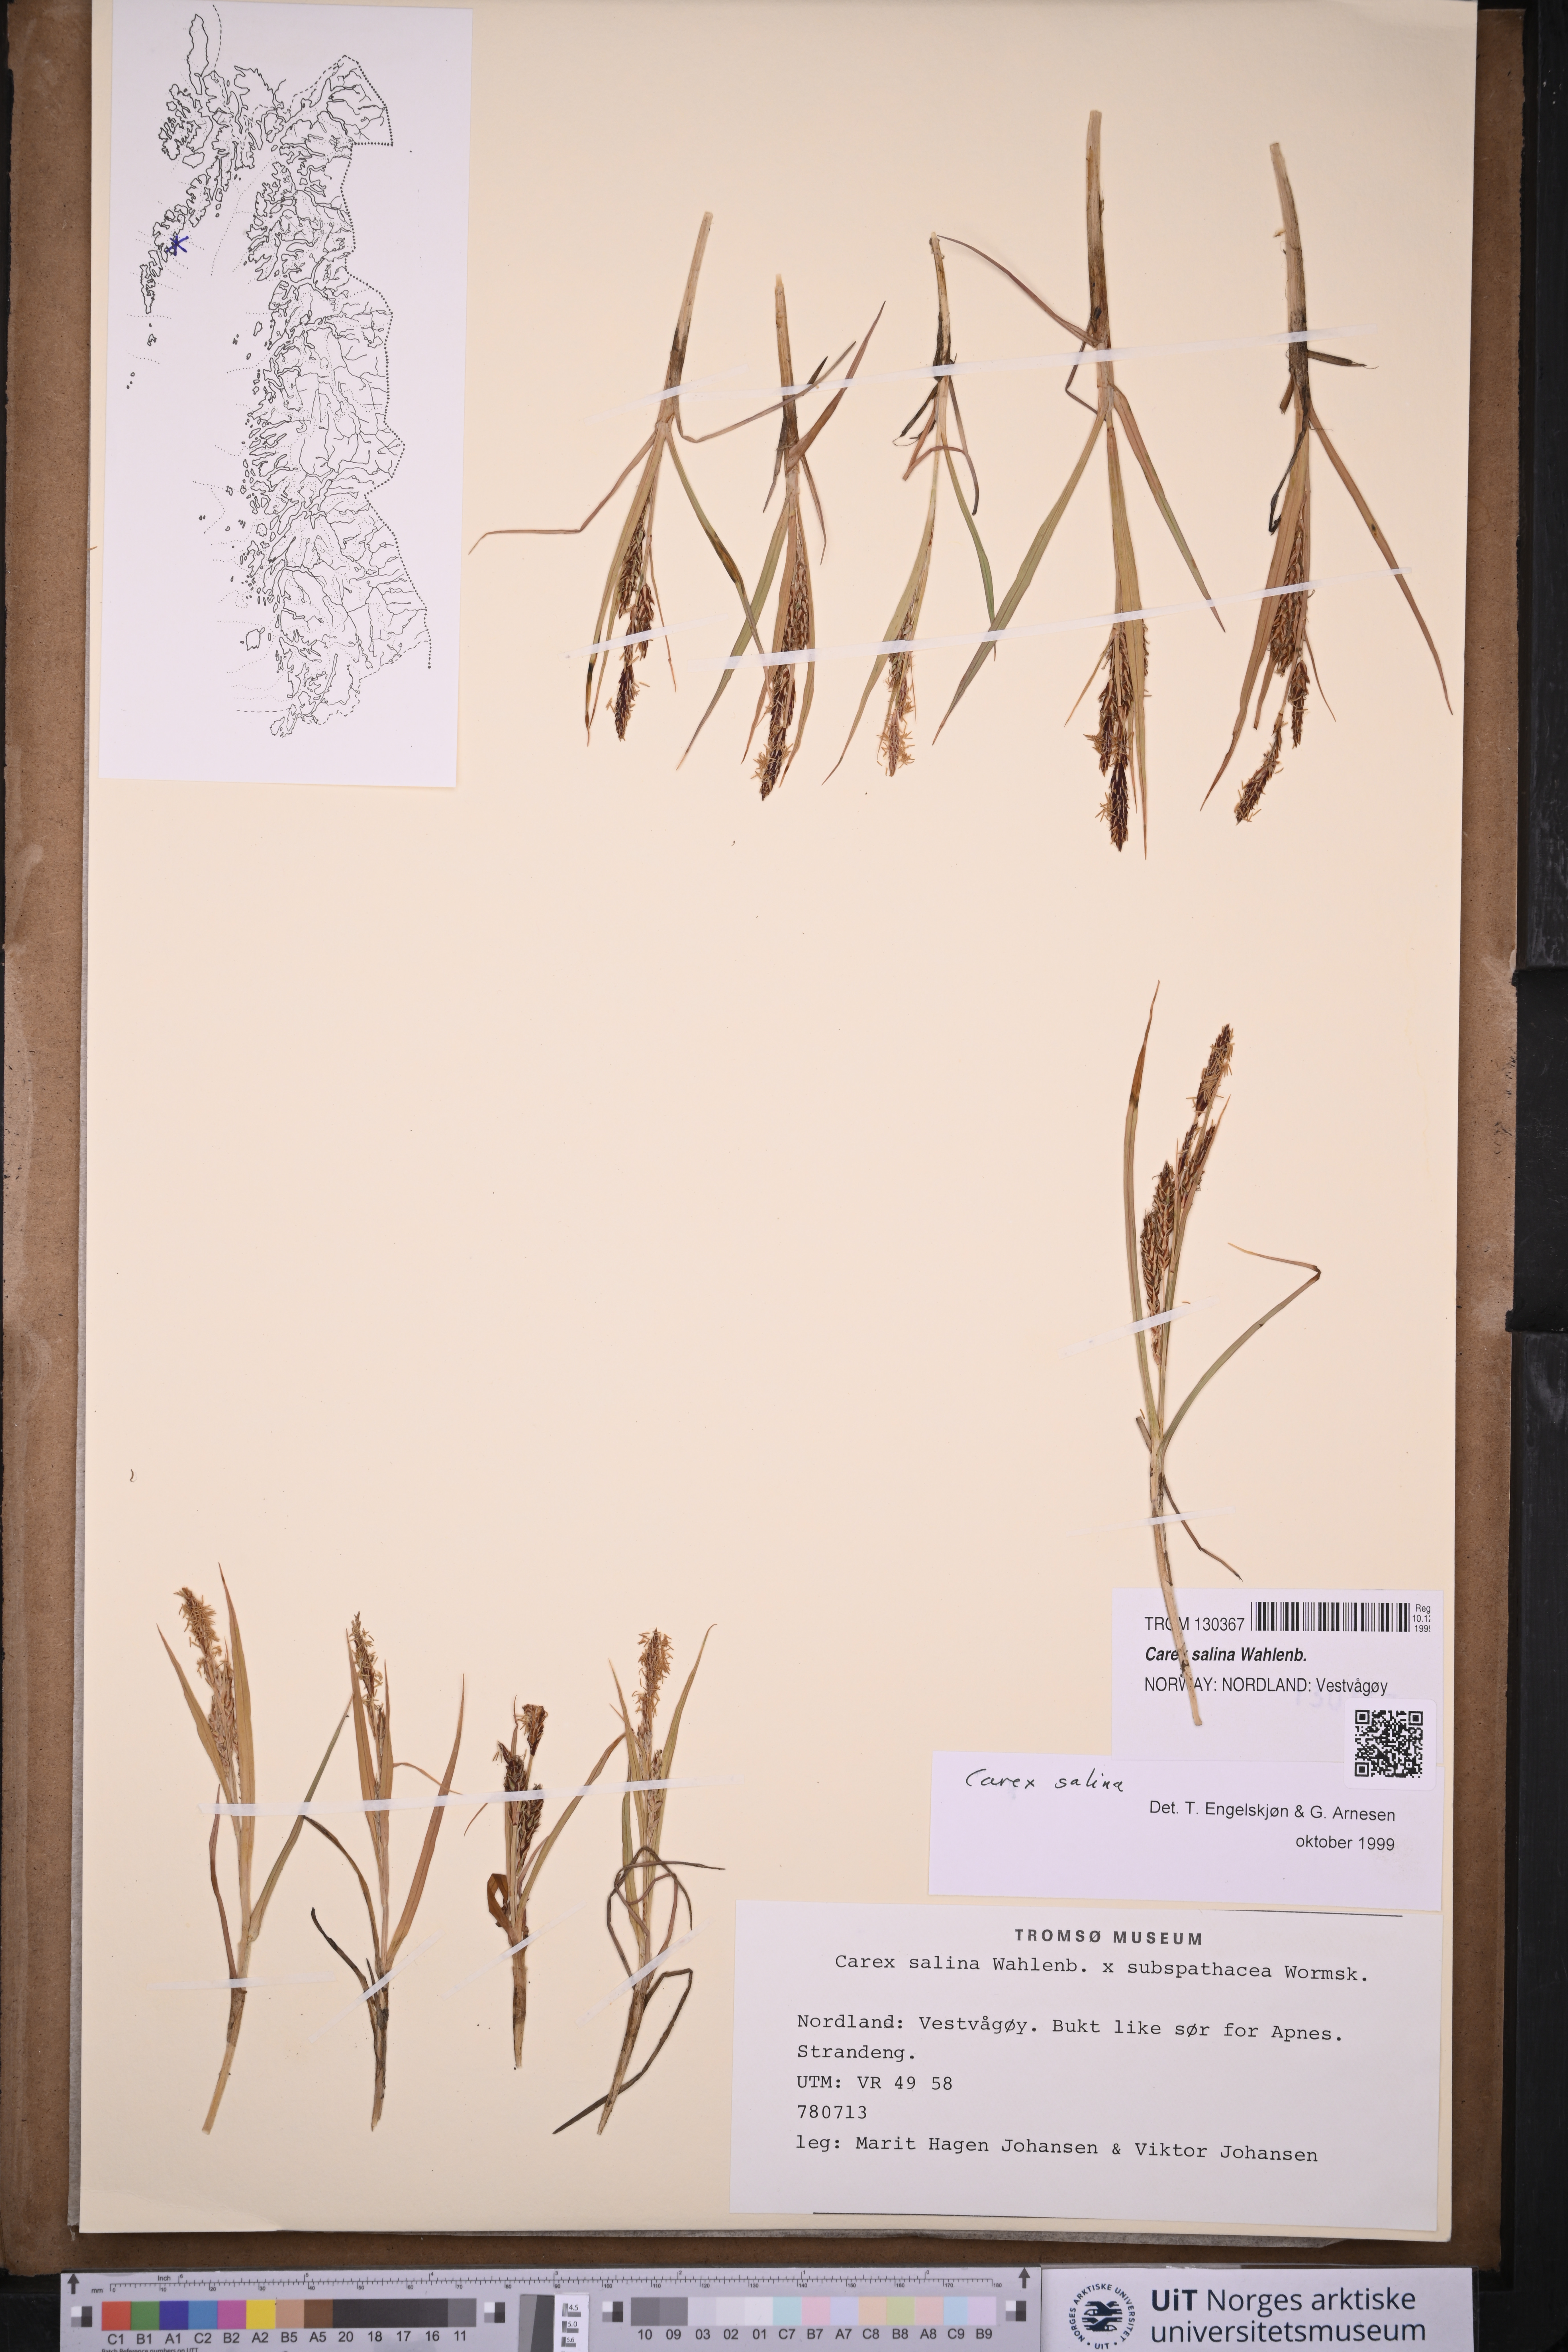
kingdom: Plantae
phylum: Tracheophyta
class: Liliopsida
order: Poales
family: Cyperaceae
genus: Carex
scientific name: Carex salina
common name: Saltmarsh sedge
